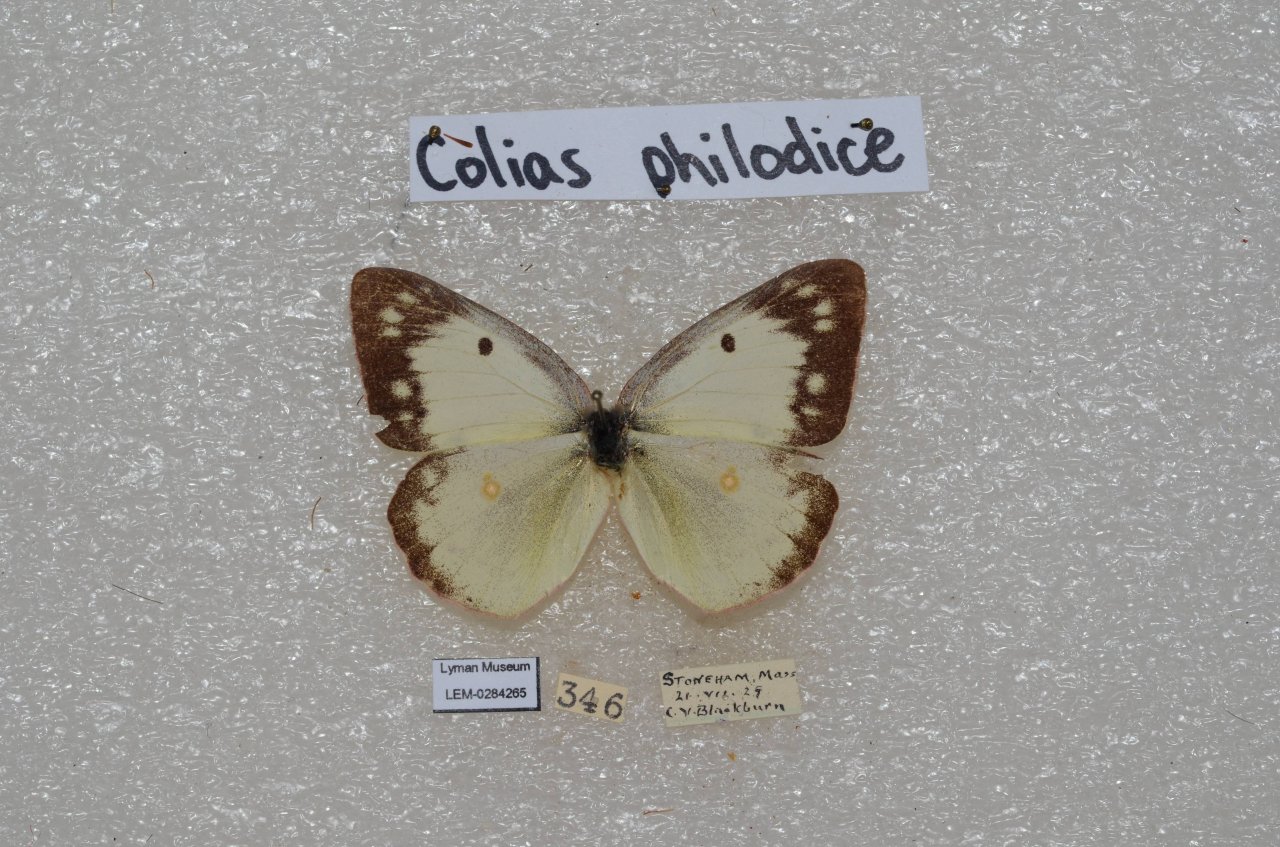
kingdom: Animalia
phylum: Arthropoda
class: Insecta
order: Lepidoptera
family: Pieridae
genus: Colias
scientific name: Colias philodice
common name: Clouded Sulphur
